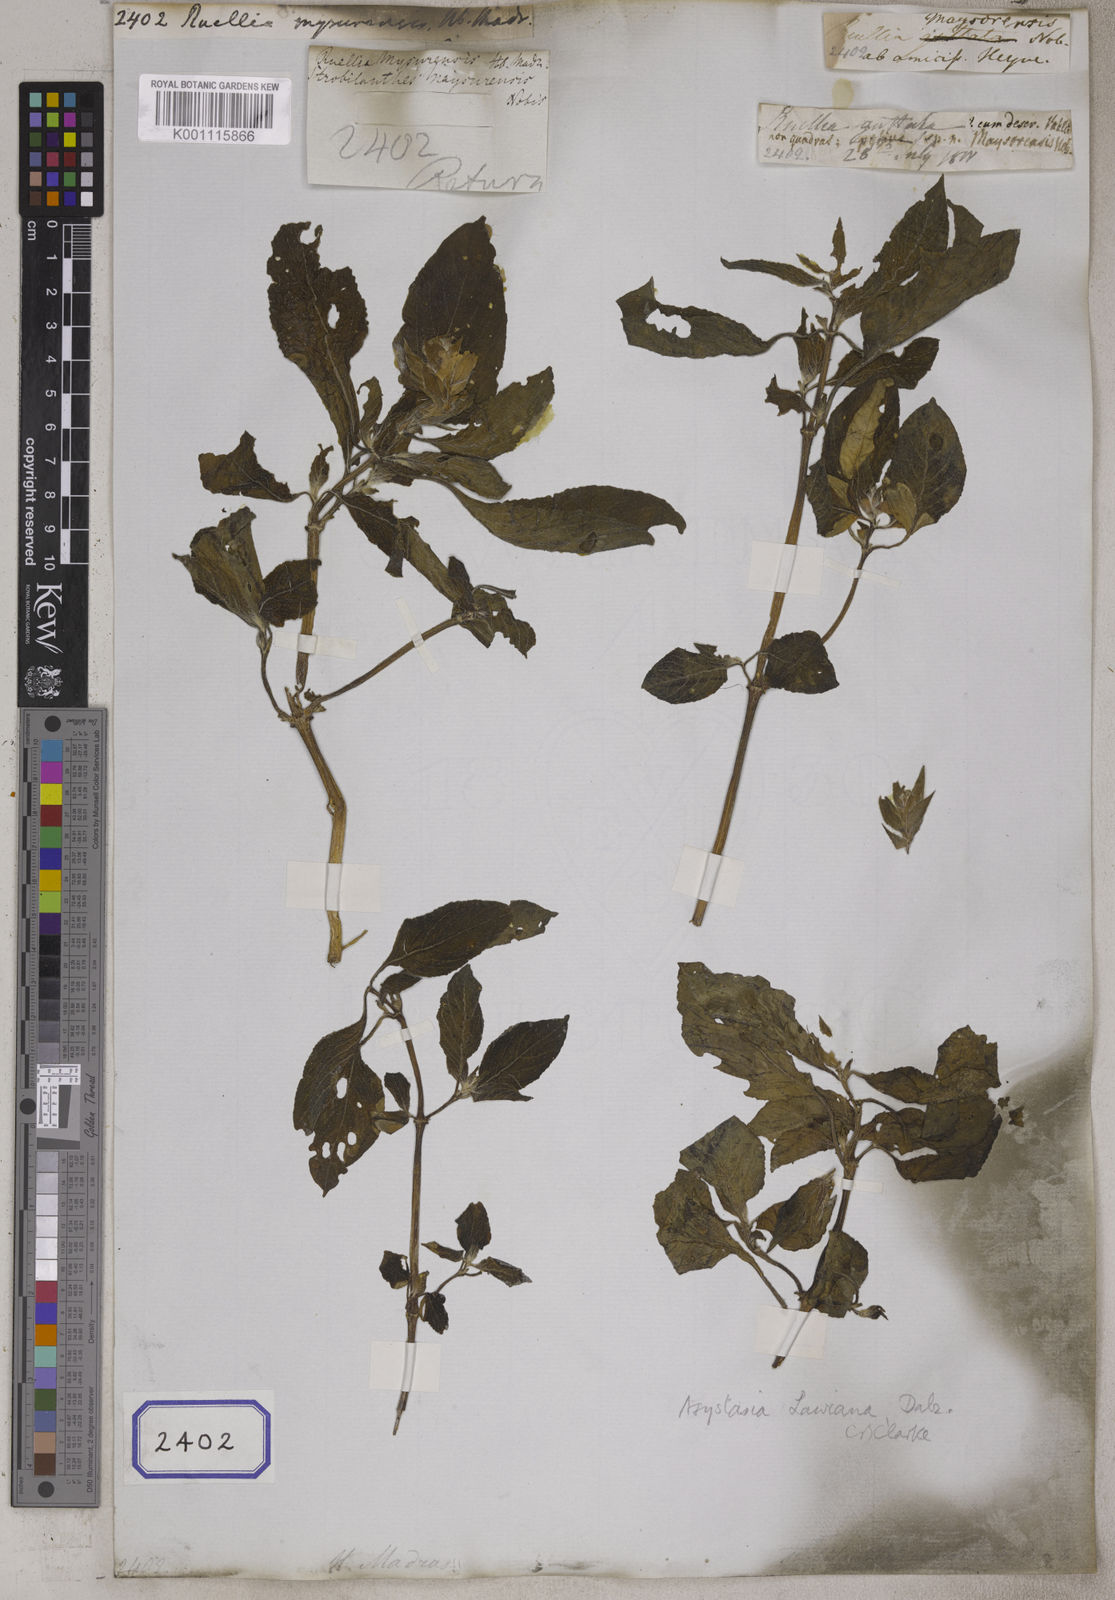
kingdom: Plantae
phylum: Tracheophyta
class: Magnoliopsida
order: Lamiales
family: Acanthaceae
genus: Ruellia
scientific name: Ruellia
